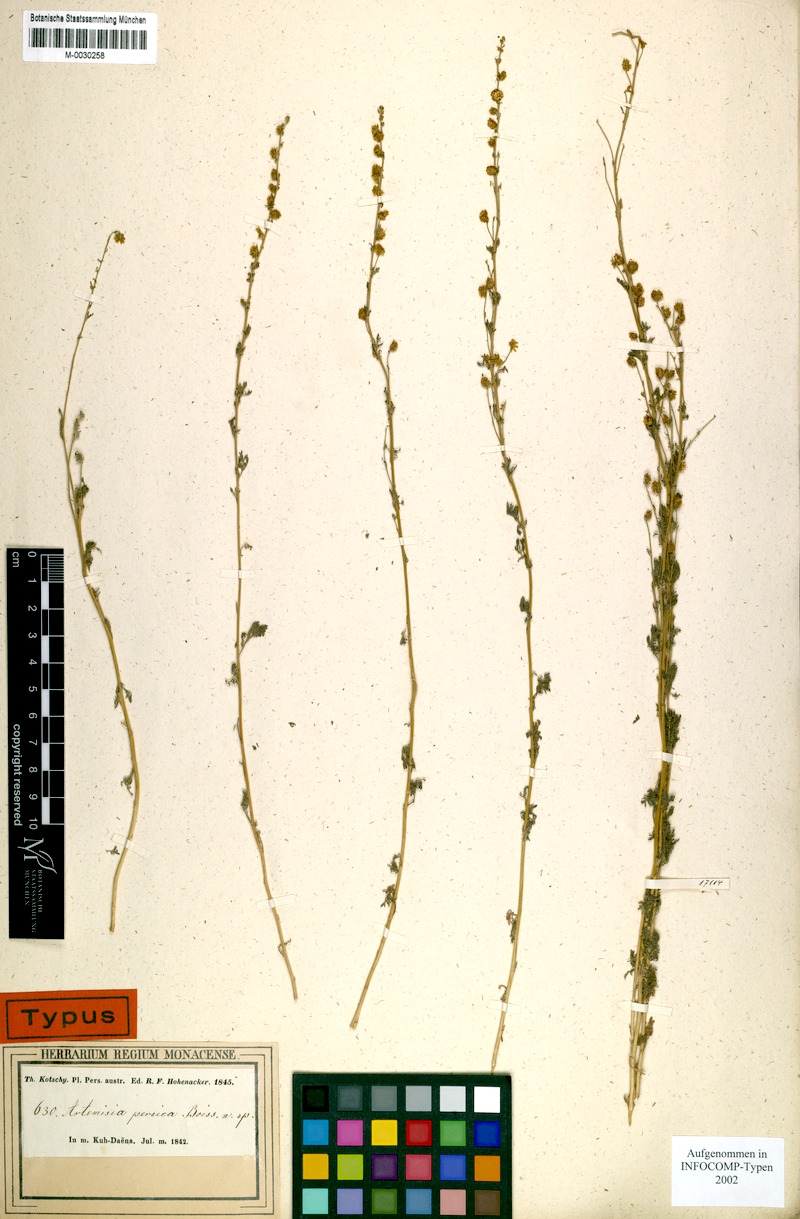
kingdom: Plantae
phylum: Tracheophyta
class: Magnoliopsida
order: Asterales
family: Asteraceae
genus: Artemisia
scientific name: Artemisia persica
